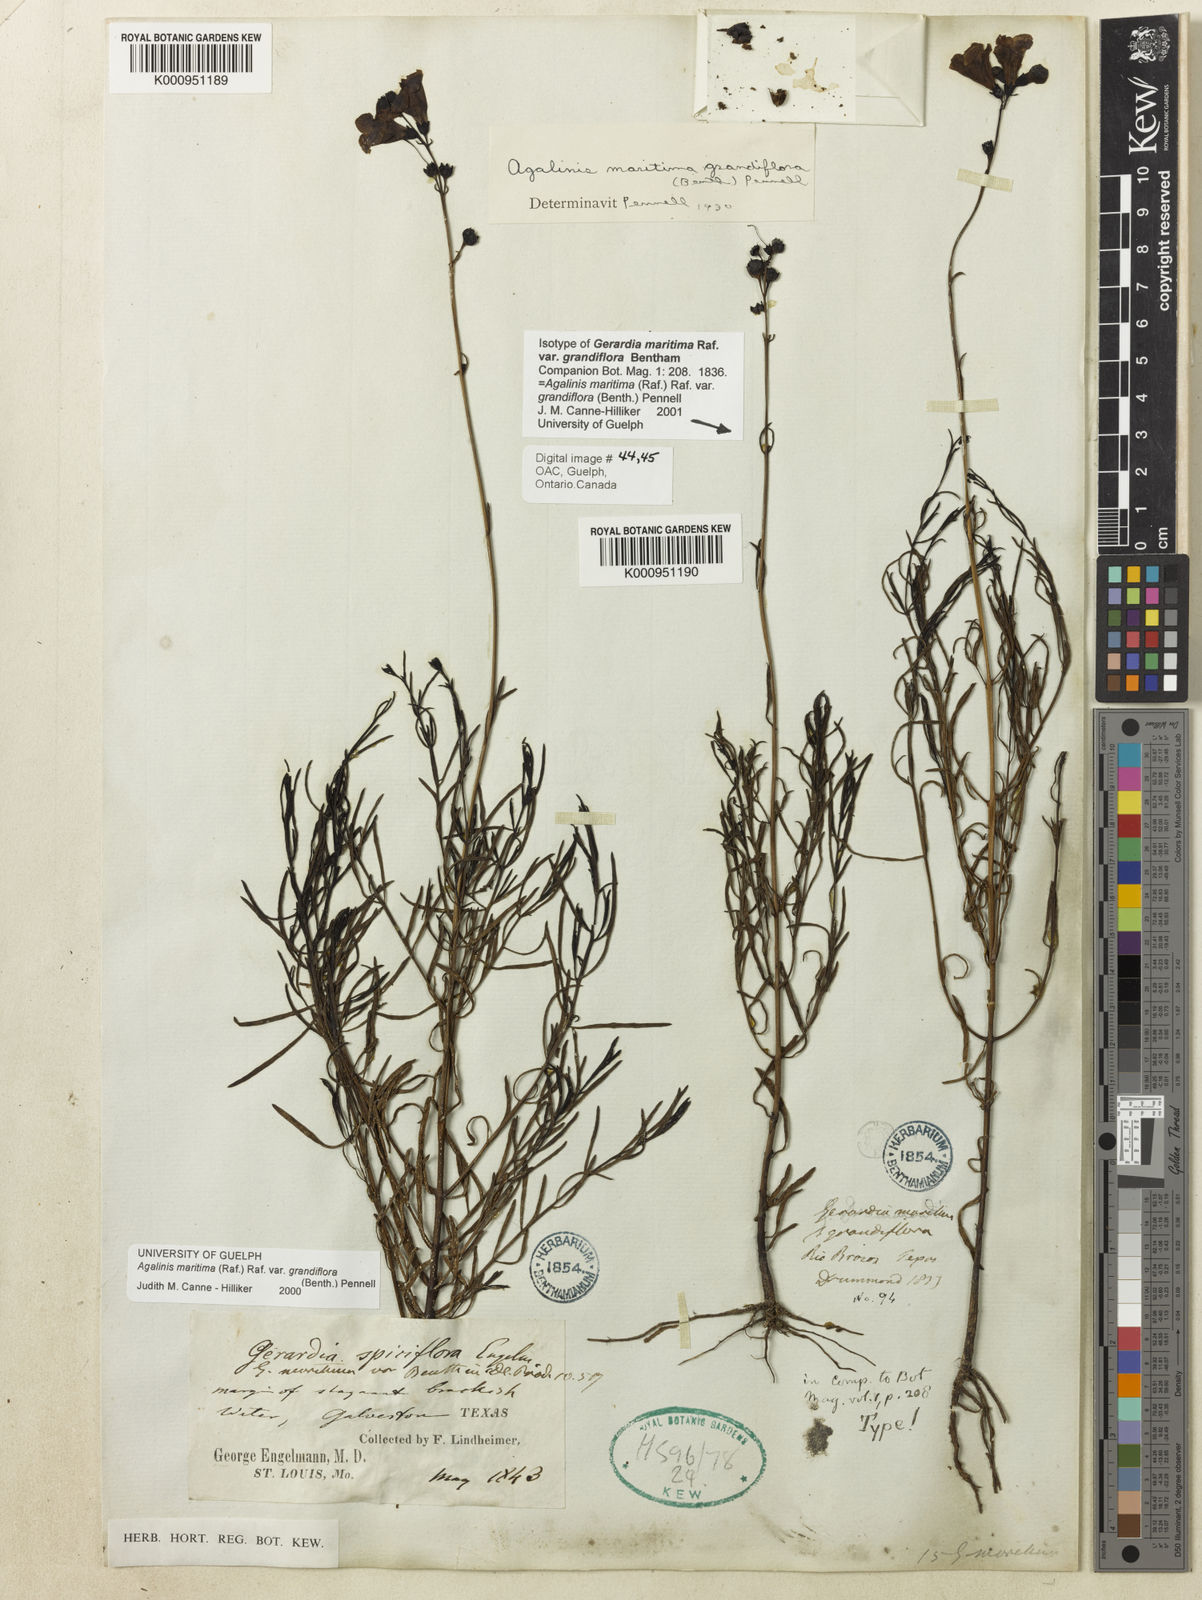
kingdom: Plantae
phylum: Tracheophyta
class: Magnoliopsida
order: Lamiales
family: Orobanchaceae
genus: Agalinis
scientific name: Agalinis maritima
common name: Saltmarsh agalinis
